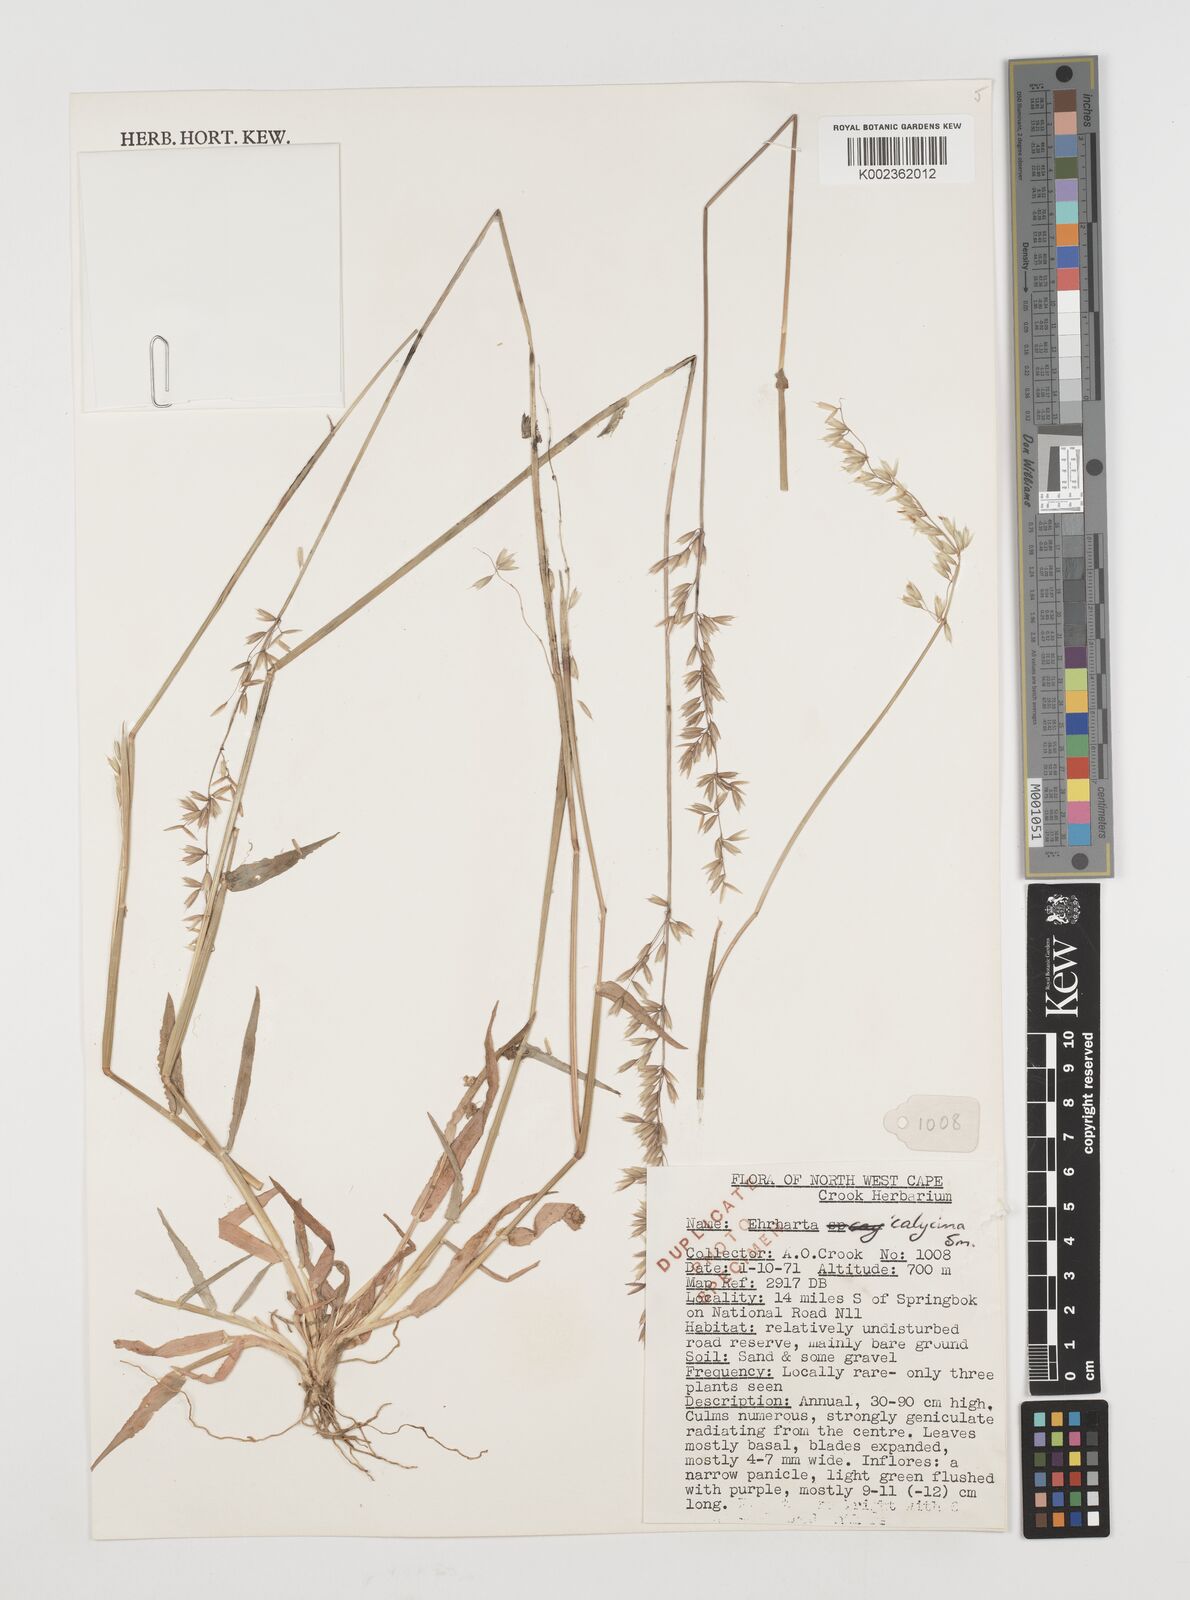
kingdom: Plantae
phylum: Tracheophyta
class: Liliopsida
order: Poales
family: Poaceae
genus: Ehrharta
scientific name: Ehrharta calycina
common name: Perennial veldtgrass
